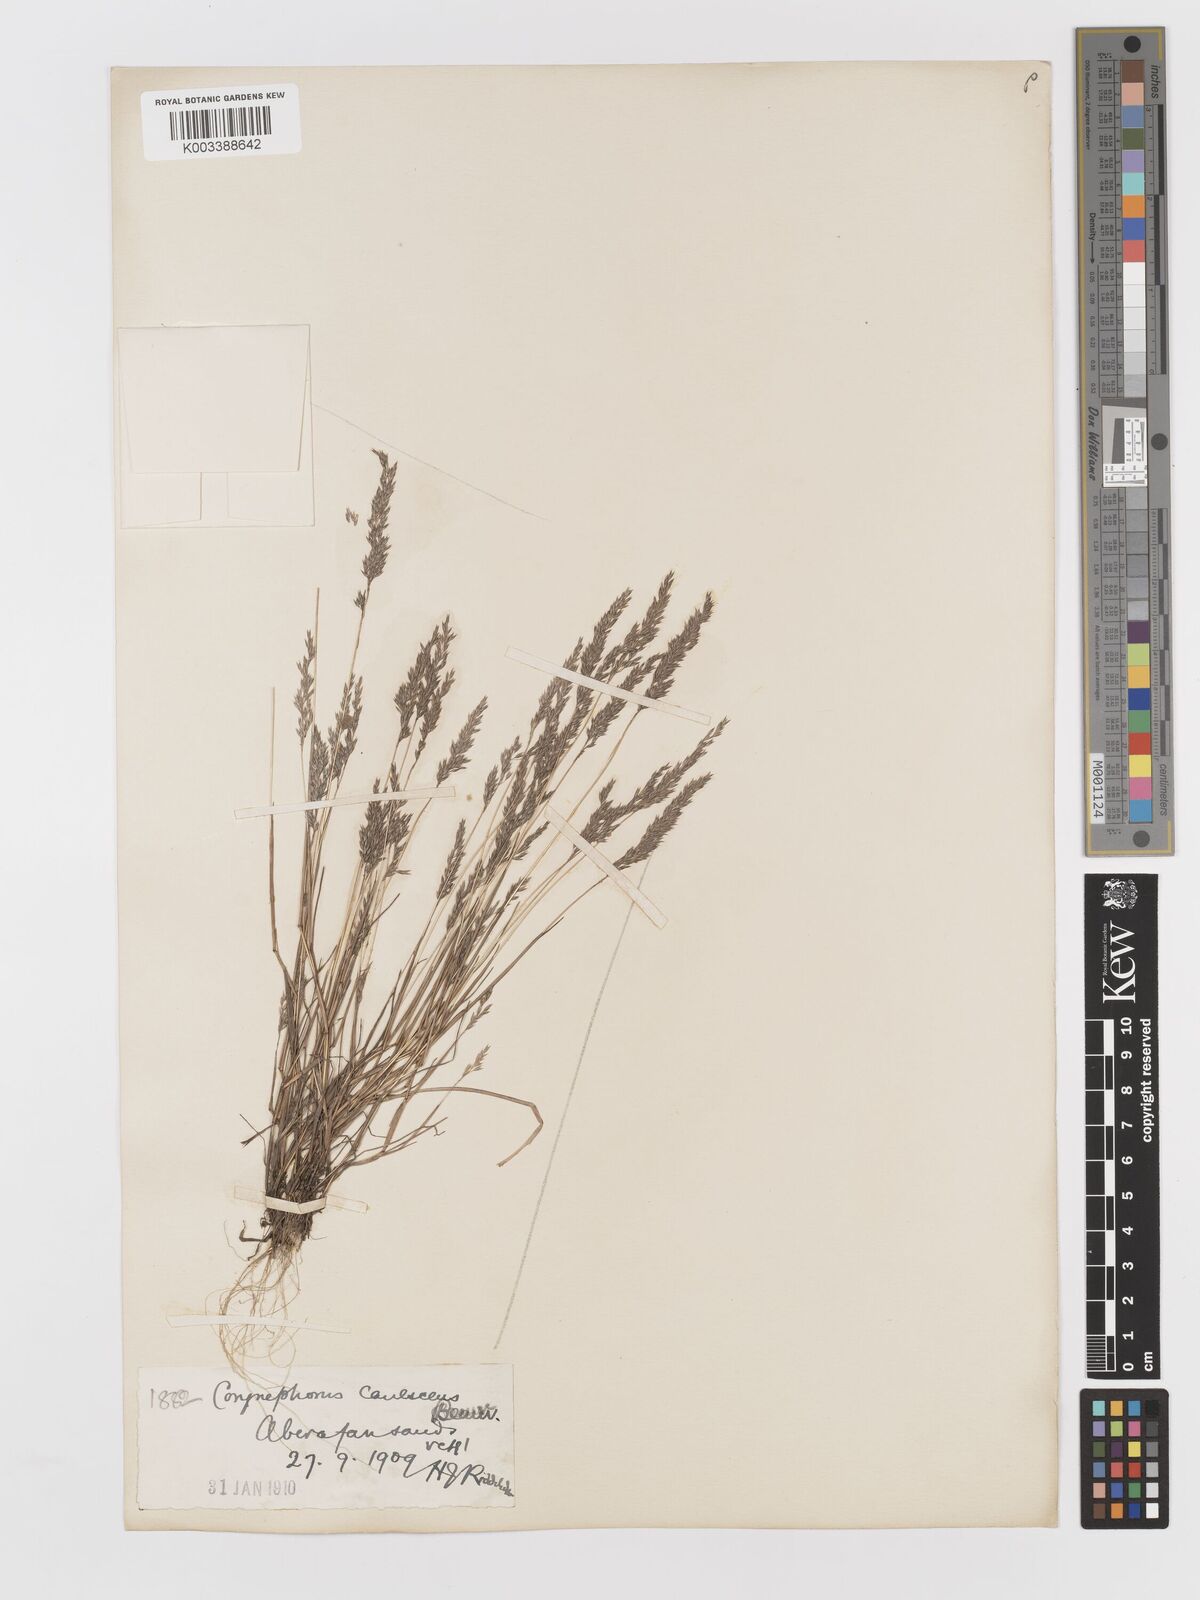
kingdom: Plantae
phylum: Tracheophyta
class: Liliopsida
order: Poales
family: Poaceae
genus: Corynephorus
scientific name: Corynephorus canescens
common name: Grey hair-grass
